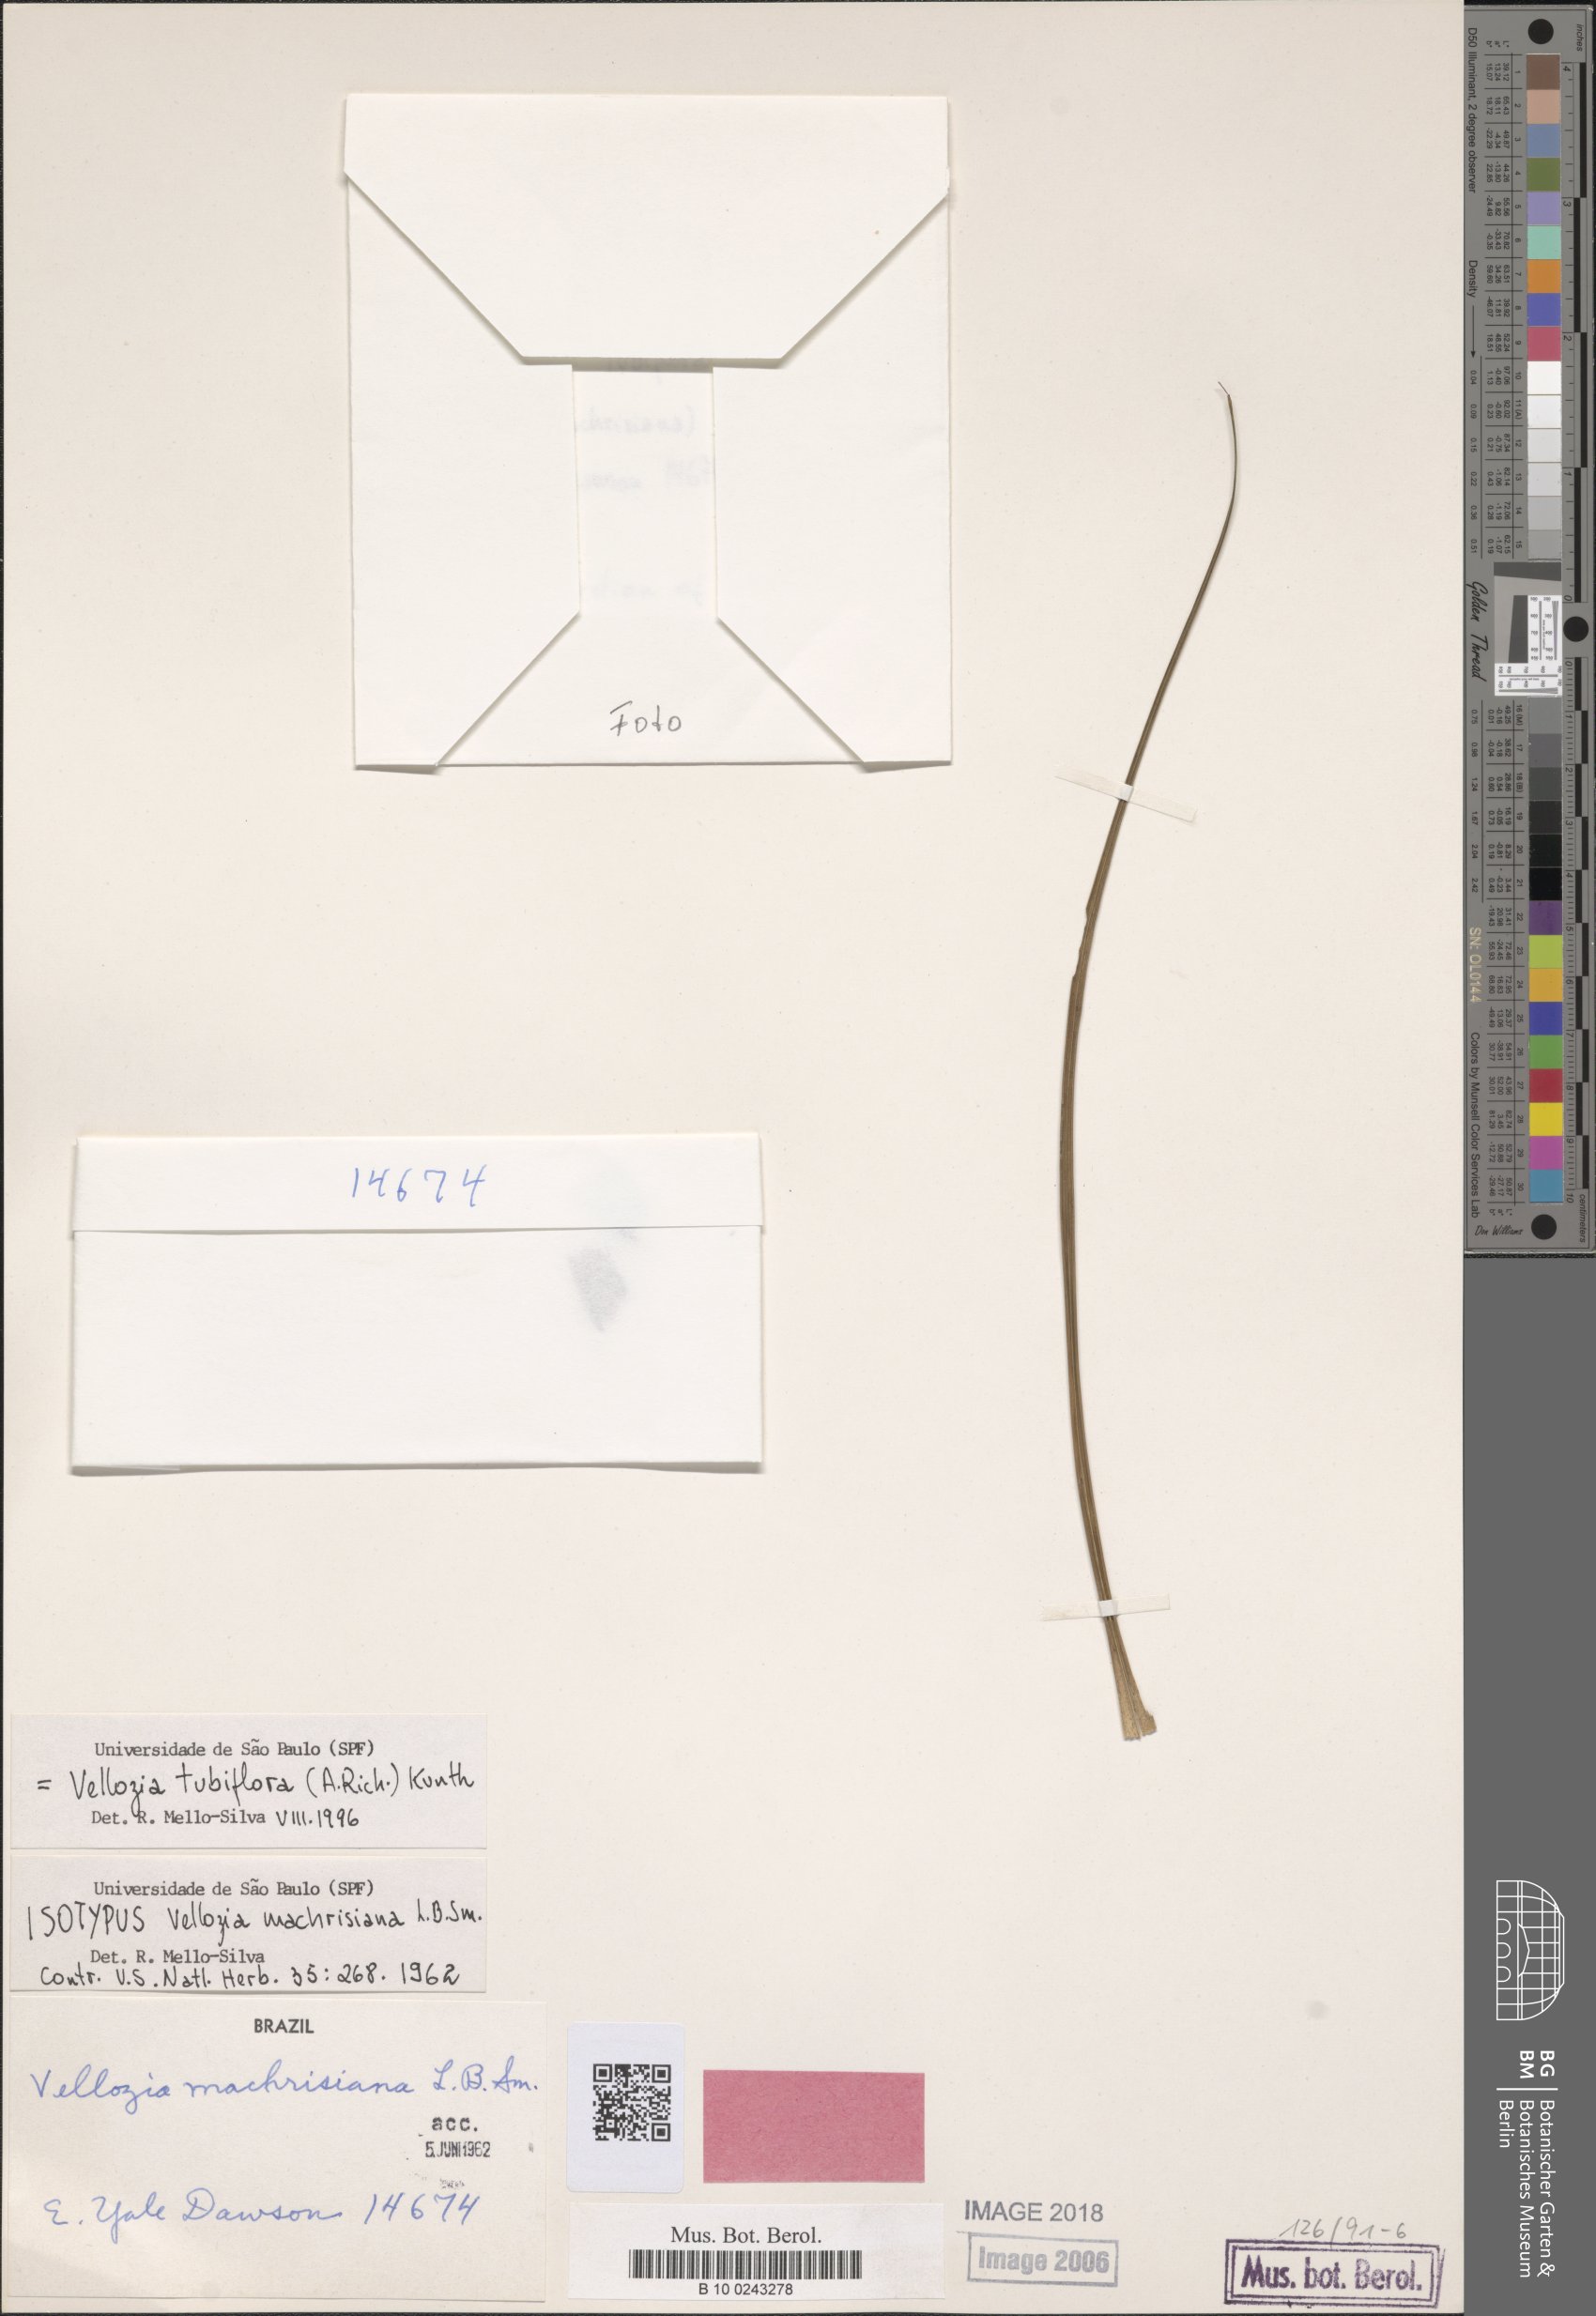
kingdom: Plantae
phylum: Tracheophyta
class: Liliopsida
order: Pandanales
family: Velloziaceae
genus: Vellozia
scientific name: Vellozia tubiflora
